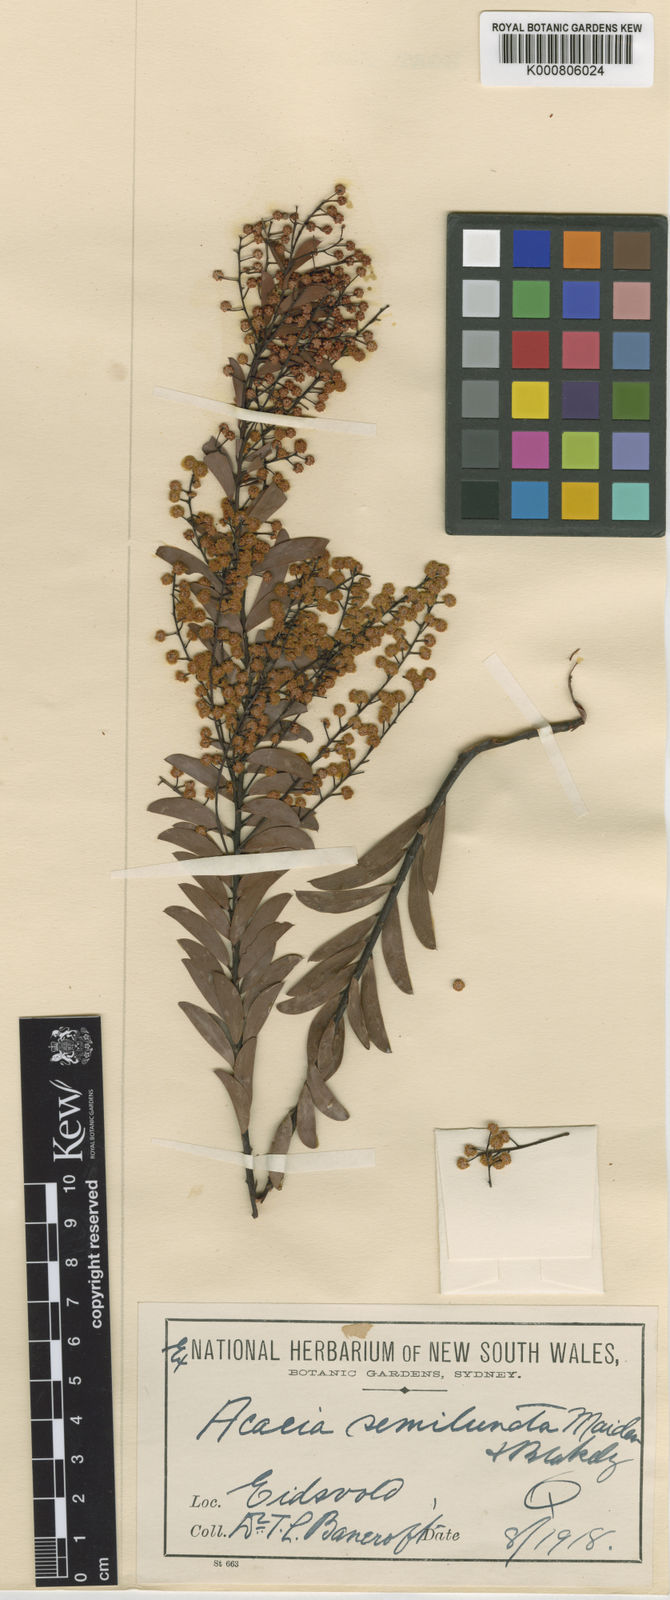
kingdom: Plantae
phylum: Tracheophyta
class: Magnoliopsida
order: Fabales
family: Fabaceae
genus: Acacia
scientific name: Acacia semilunata
